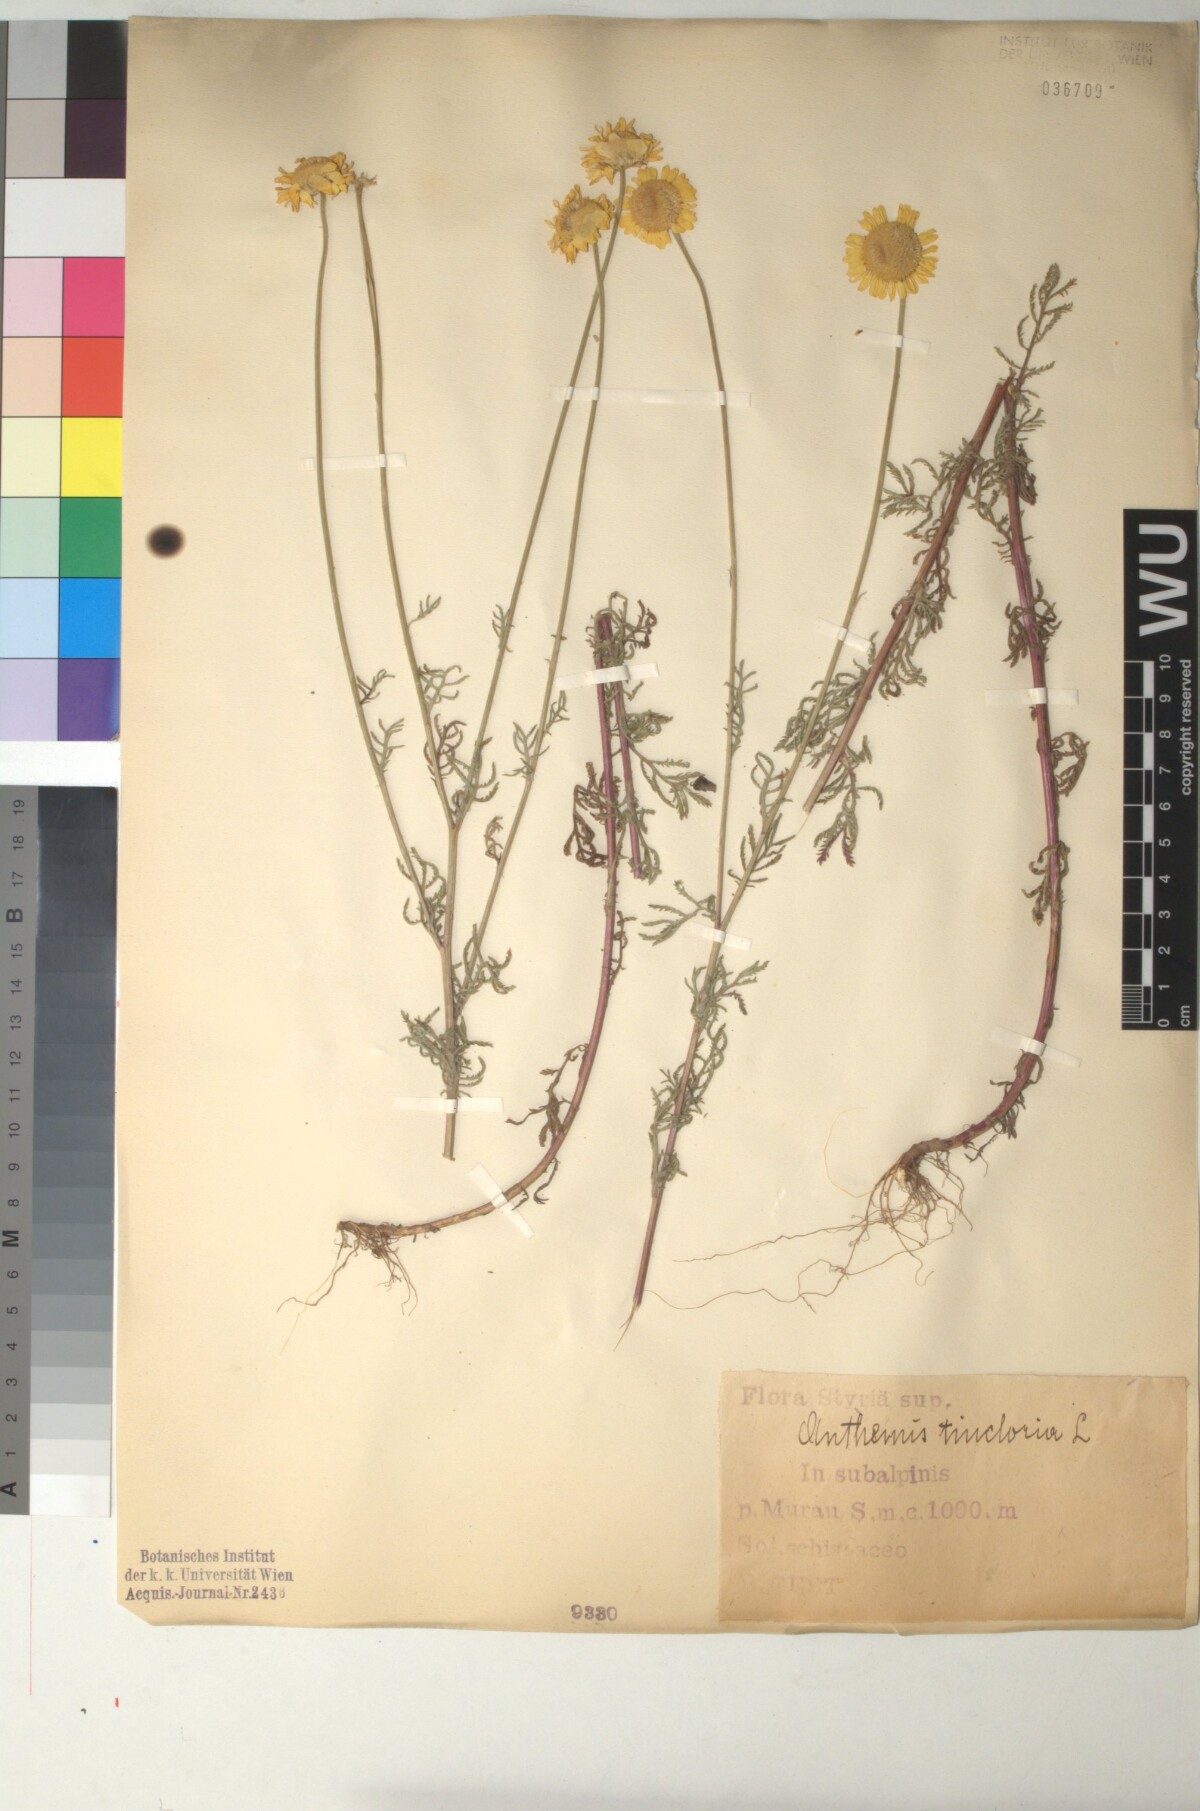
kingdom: Plantae
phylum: Tracheophyta
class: Magnoliopsida
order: Asterales
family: Asteraceae
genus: Cota
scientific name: Cota tinctoria
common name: Golden chamomile
